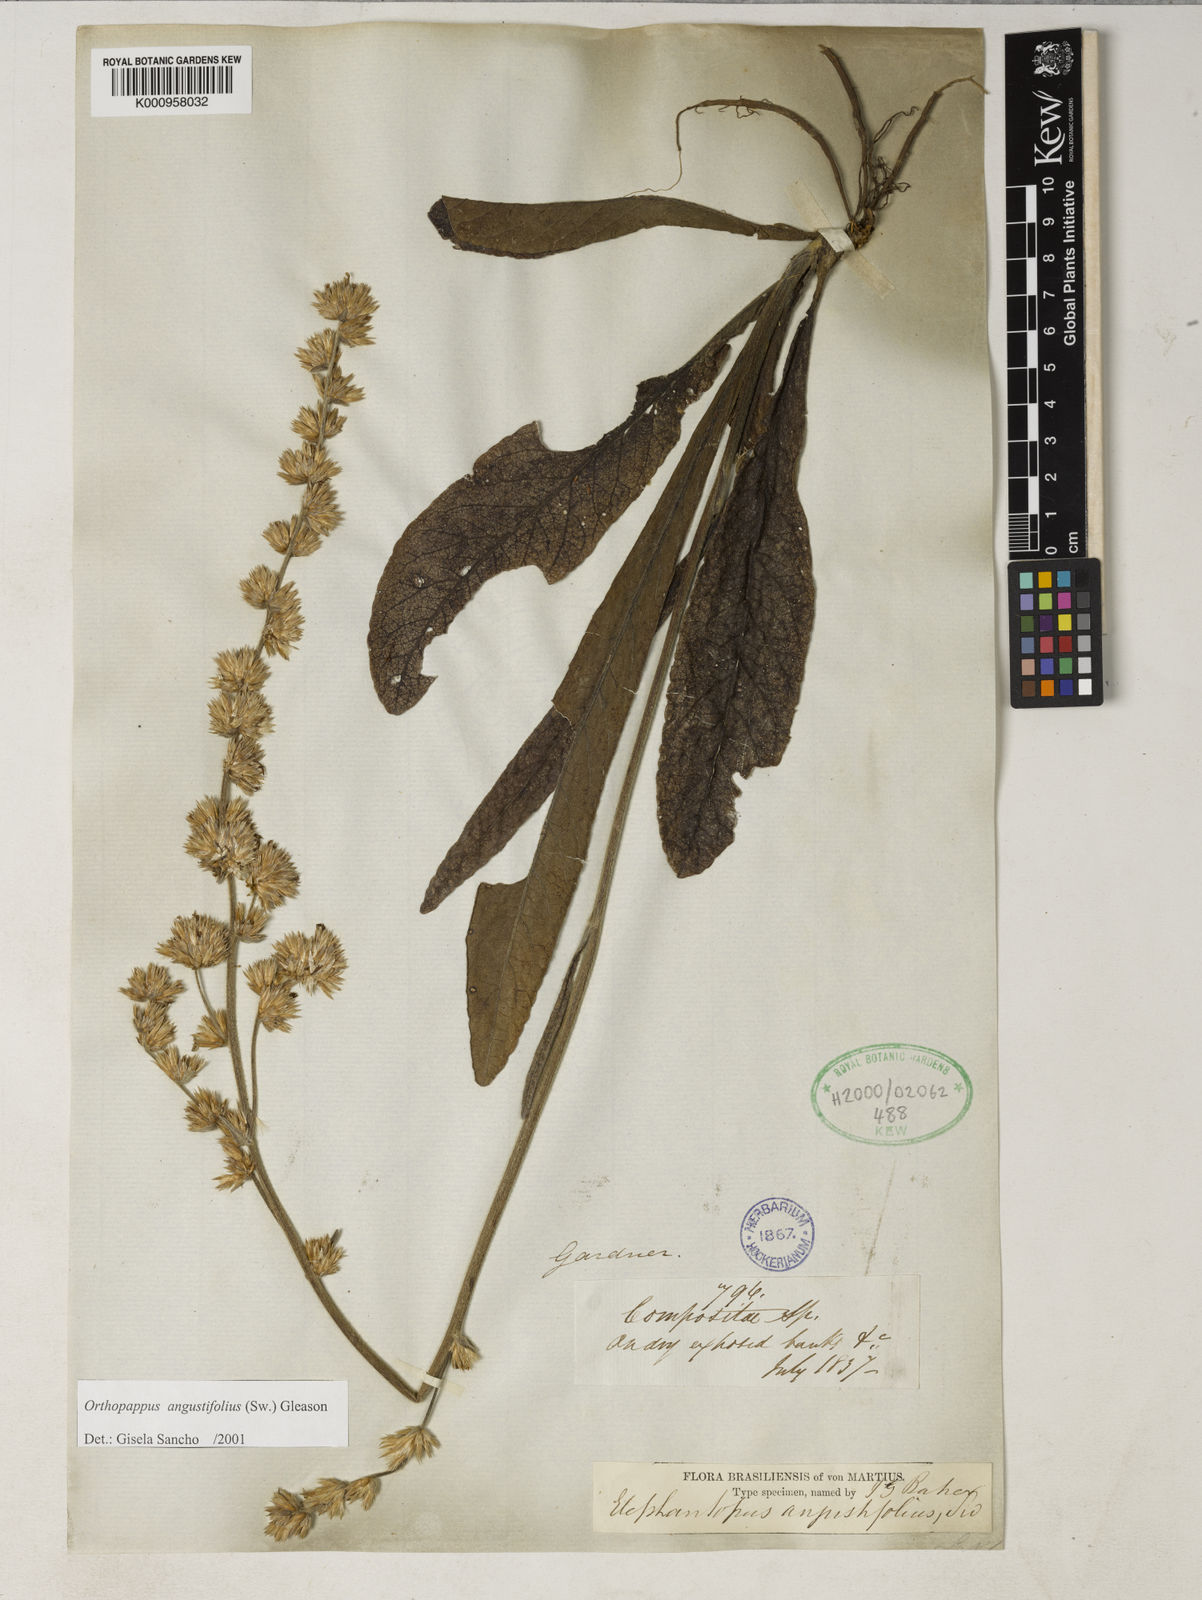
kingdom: Plantae
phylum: Tracheophyta
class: Magnoliopsida
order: Asterales
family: Asteraceae
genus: Orthopappus
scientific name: Orthopappus angustifolius
